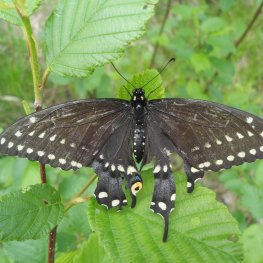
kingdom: Animalia
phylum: Arthropoda
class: Insecta
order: Lepidoptera
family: Papilionidae
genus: Papilio
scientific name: Papilio polyxenes
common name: Black Swallowtail
